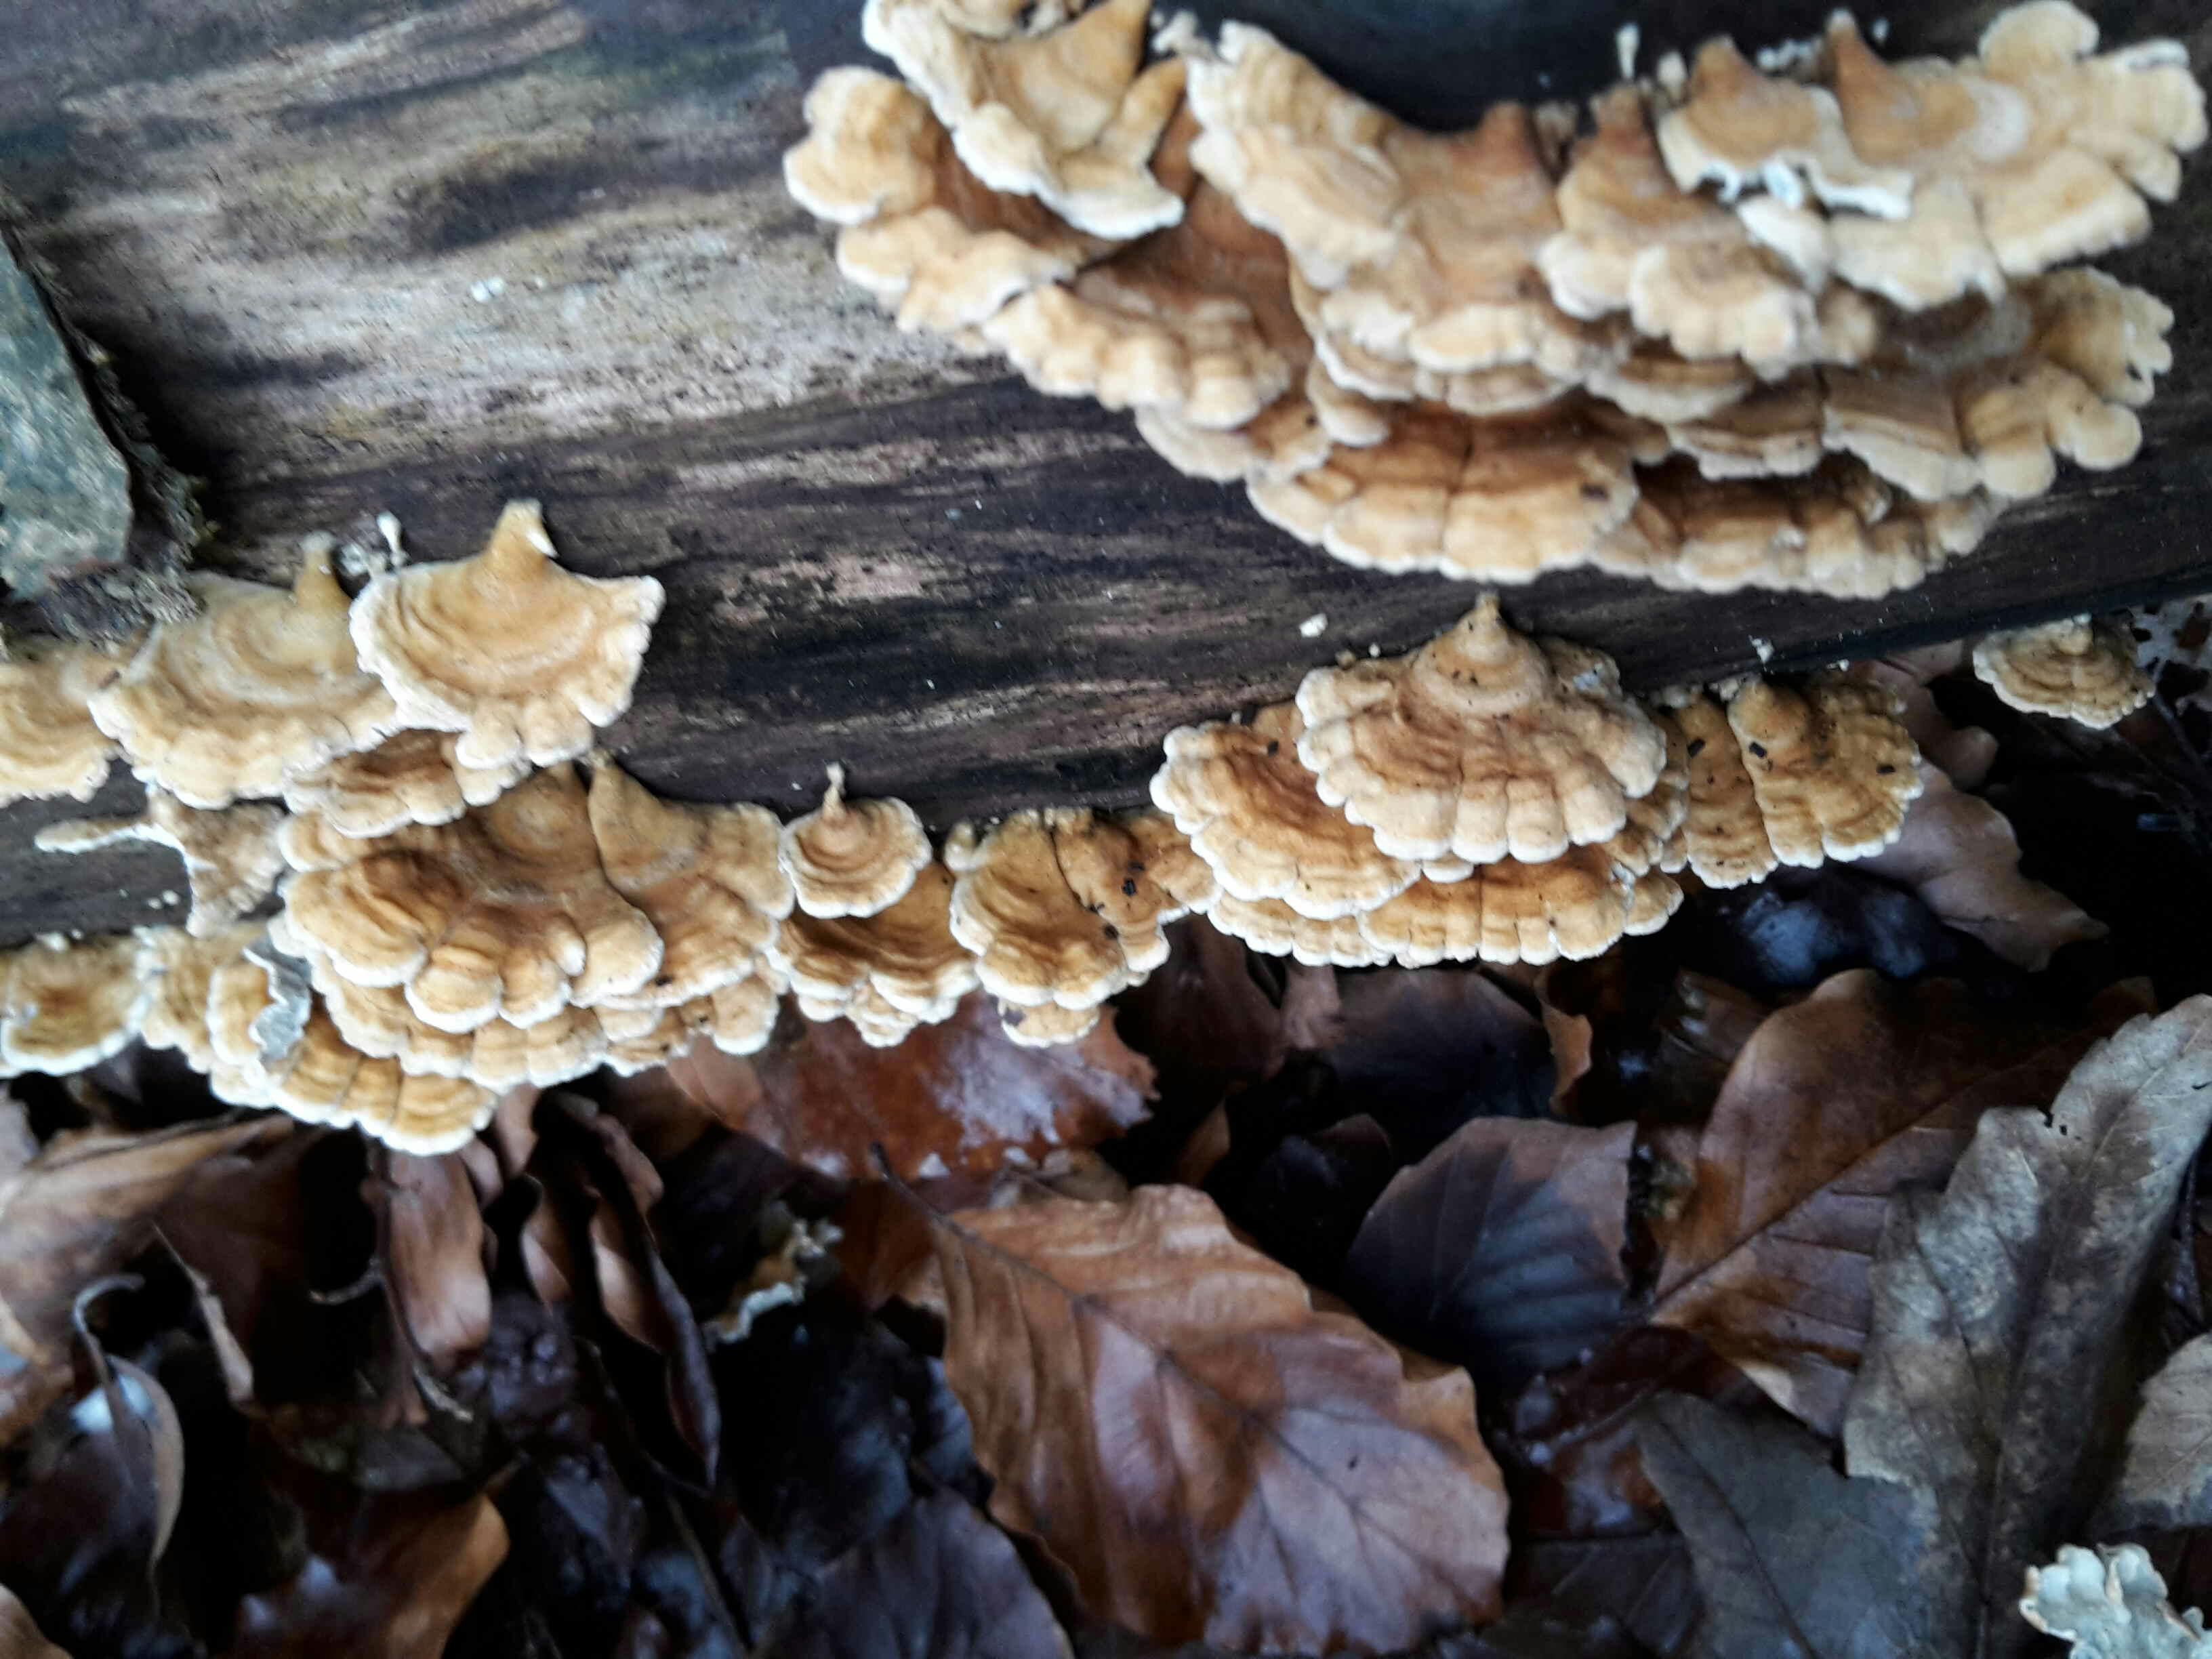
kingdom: Fungi
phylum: Basidiomycota
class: Agaricomycetes
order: Amylocorticiales
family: Amylocorticiaceae
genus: Plicaturopsis
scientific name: Plicaturopsis crispa
